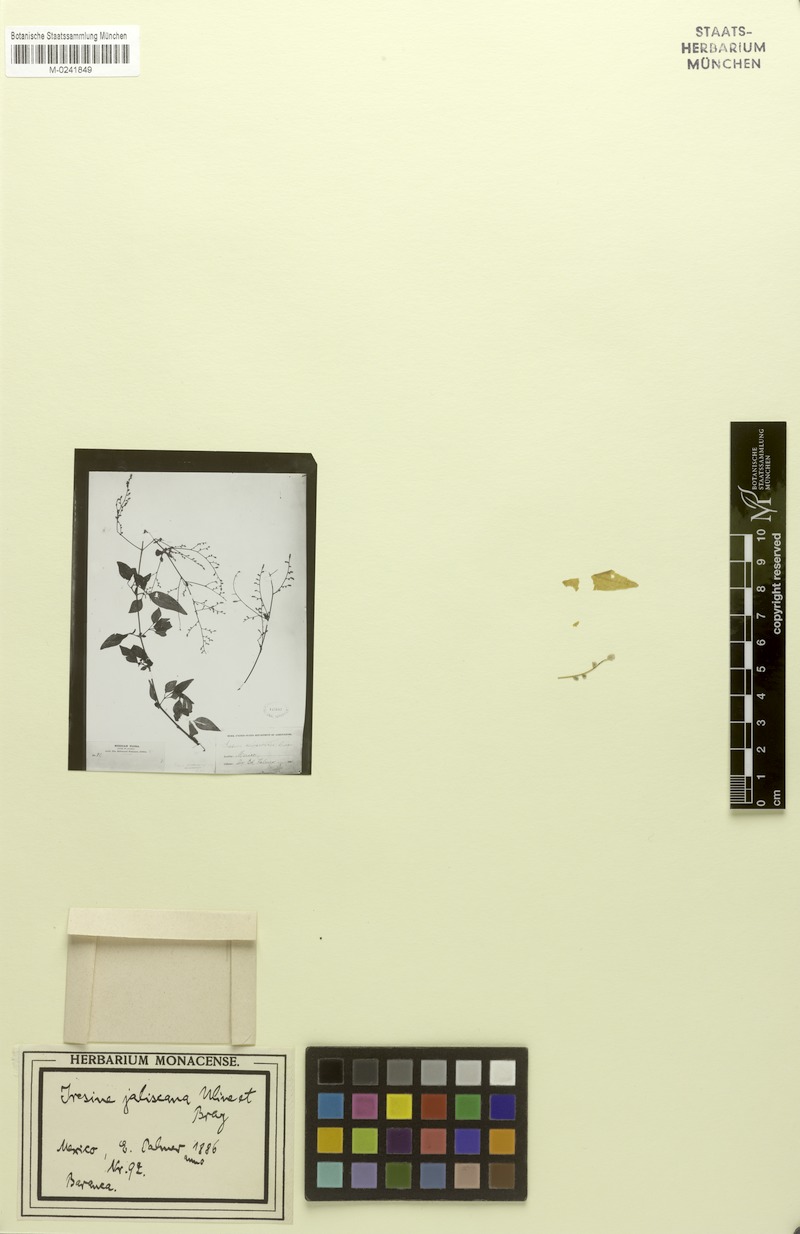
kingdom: Plantae
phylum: Tracheophyta
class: Magnoliopsida
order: Caryophyllales
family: Amaranthaceae
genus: Iresine
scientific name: Iresine jaliscana
